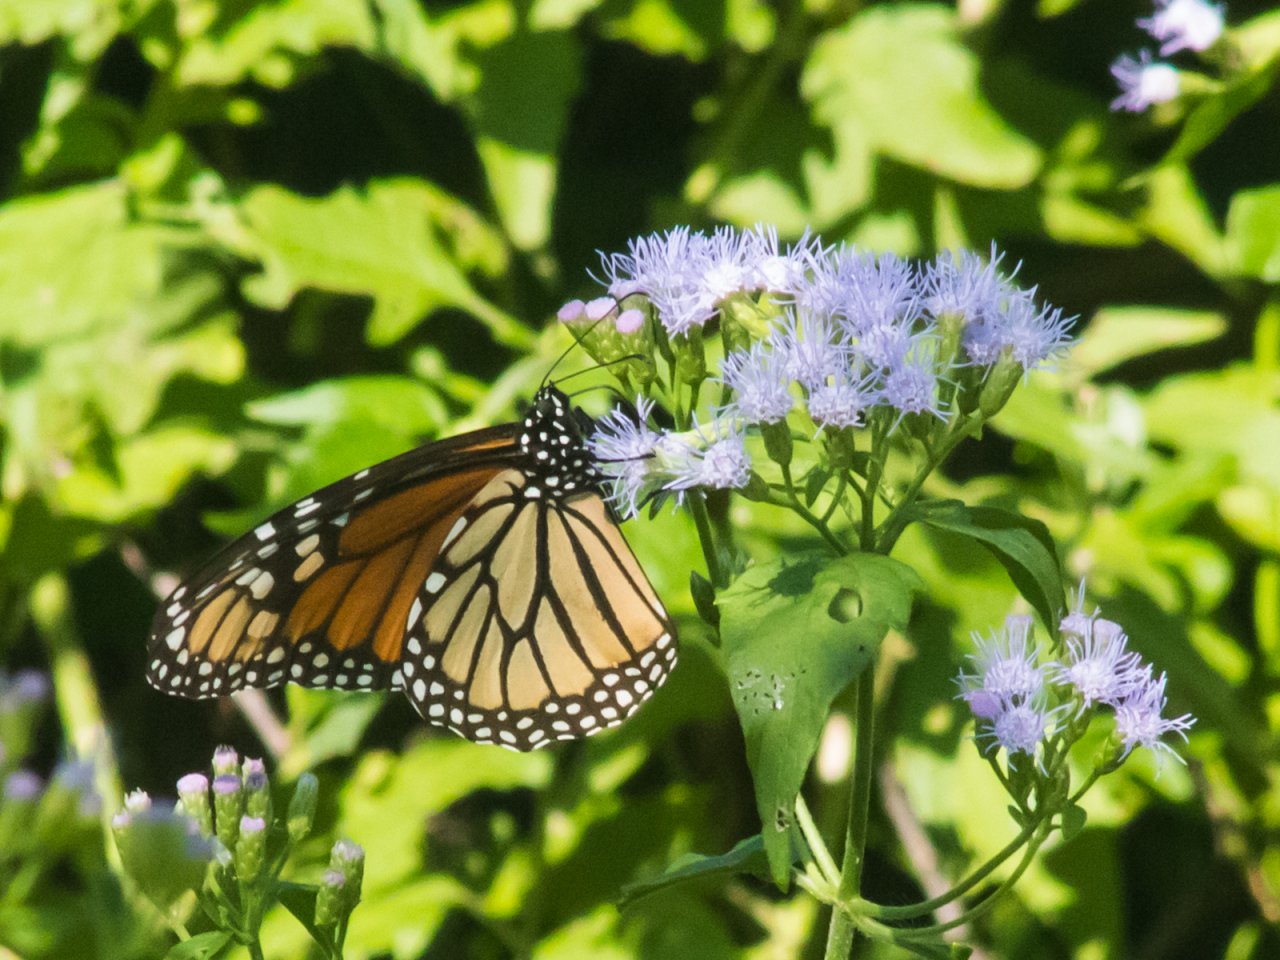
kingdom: Animalia
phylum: Arthropoda
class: Insecta
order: Lepidoptera
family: Nymphalidae
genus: Danaus
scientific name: Danaus plexippus
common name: Monarch
